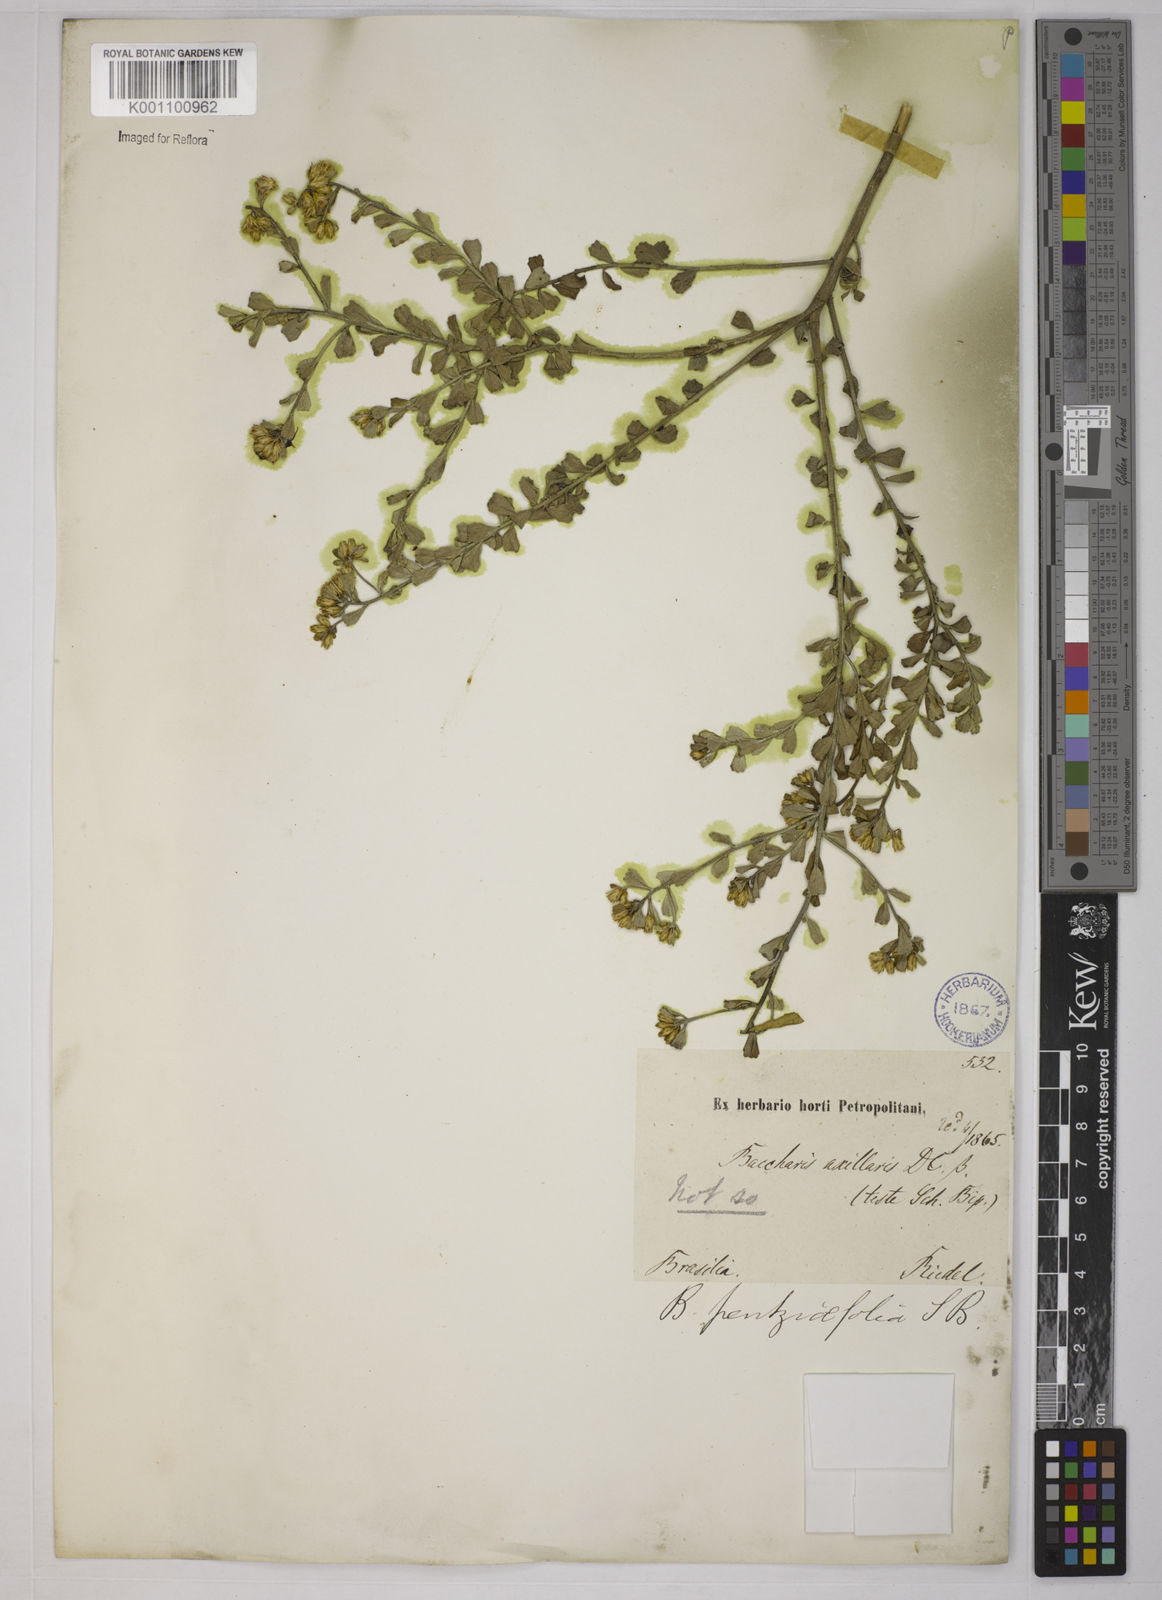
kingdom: Plantae
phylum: Tracheophyta
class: Magnoliopsida
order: Asterales
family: Asteraceae
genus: Baccharis
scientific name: Baccharis pentziifolia
